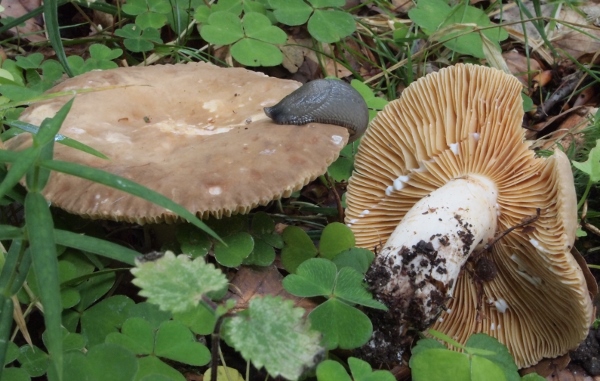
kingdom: Fungi
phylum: Basidiomycota
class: Agaricomycetes
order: Russulales
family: Russulaceae
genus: Lactarius
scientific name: Lactarius ruginosus
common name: gråbrun mælkehat
